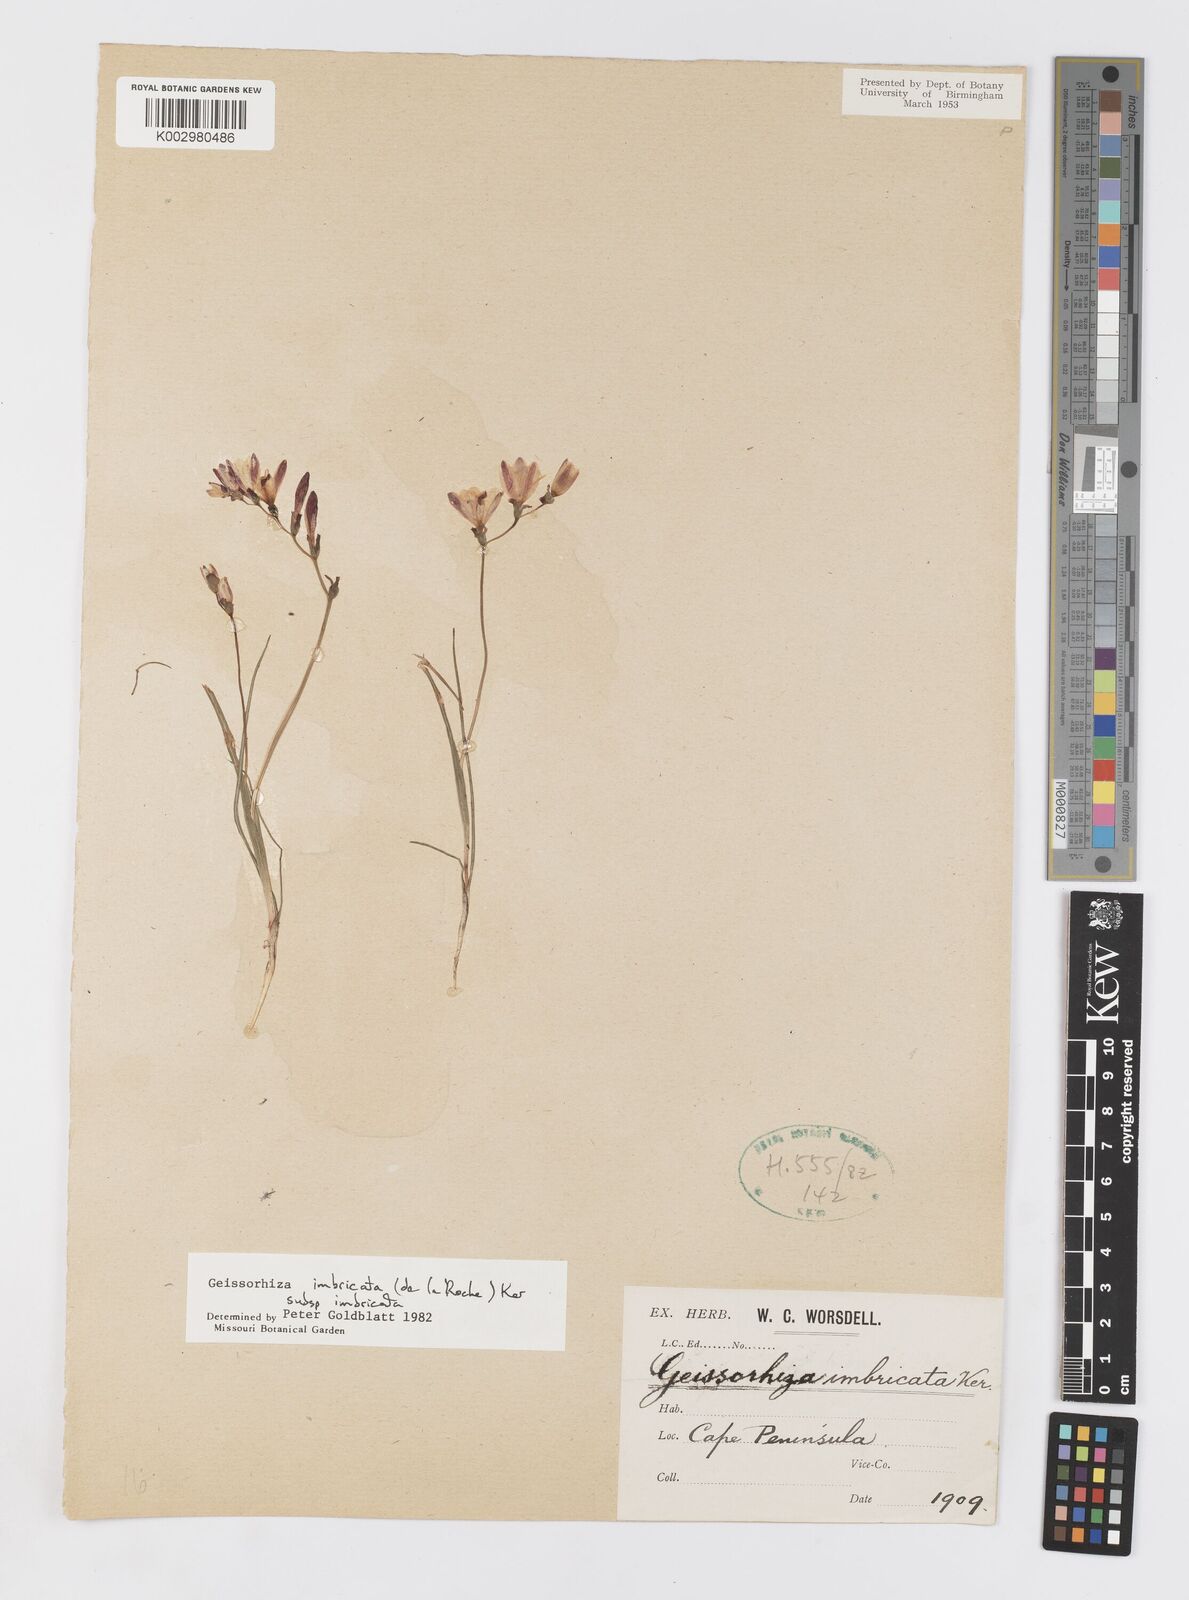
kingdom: Plantae
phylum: Tracheophyta
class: Liliopsida
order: Asparagales
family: Iridaceae
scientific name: Iridaceae
